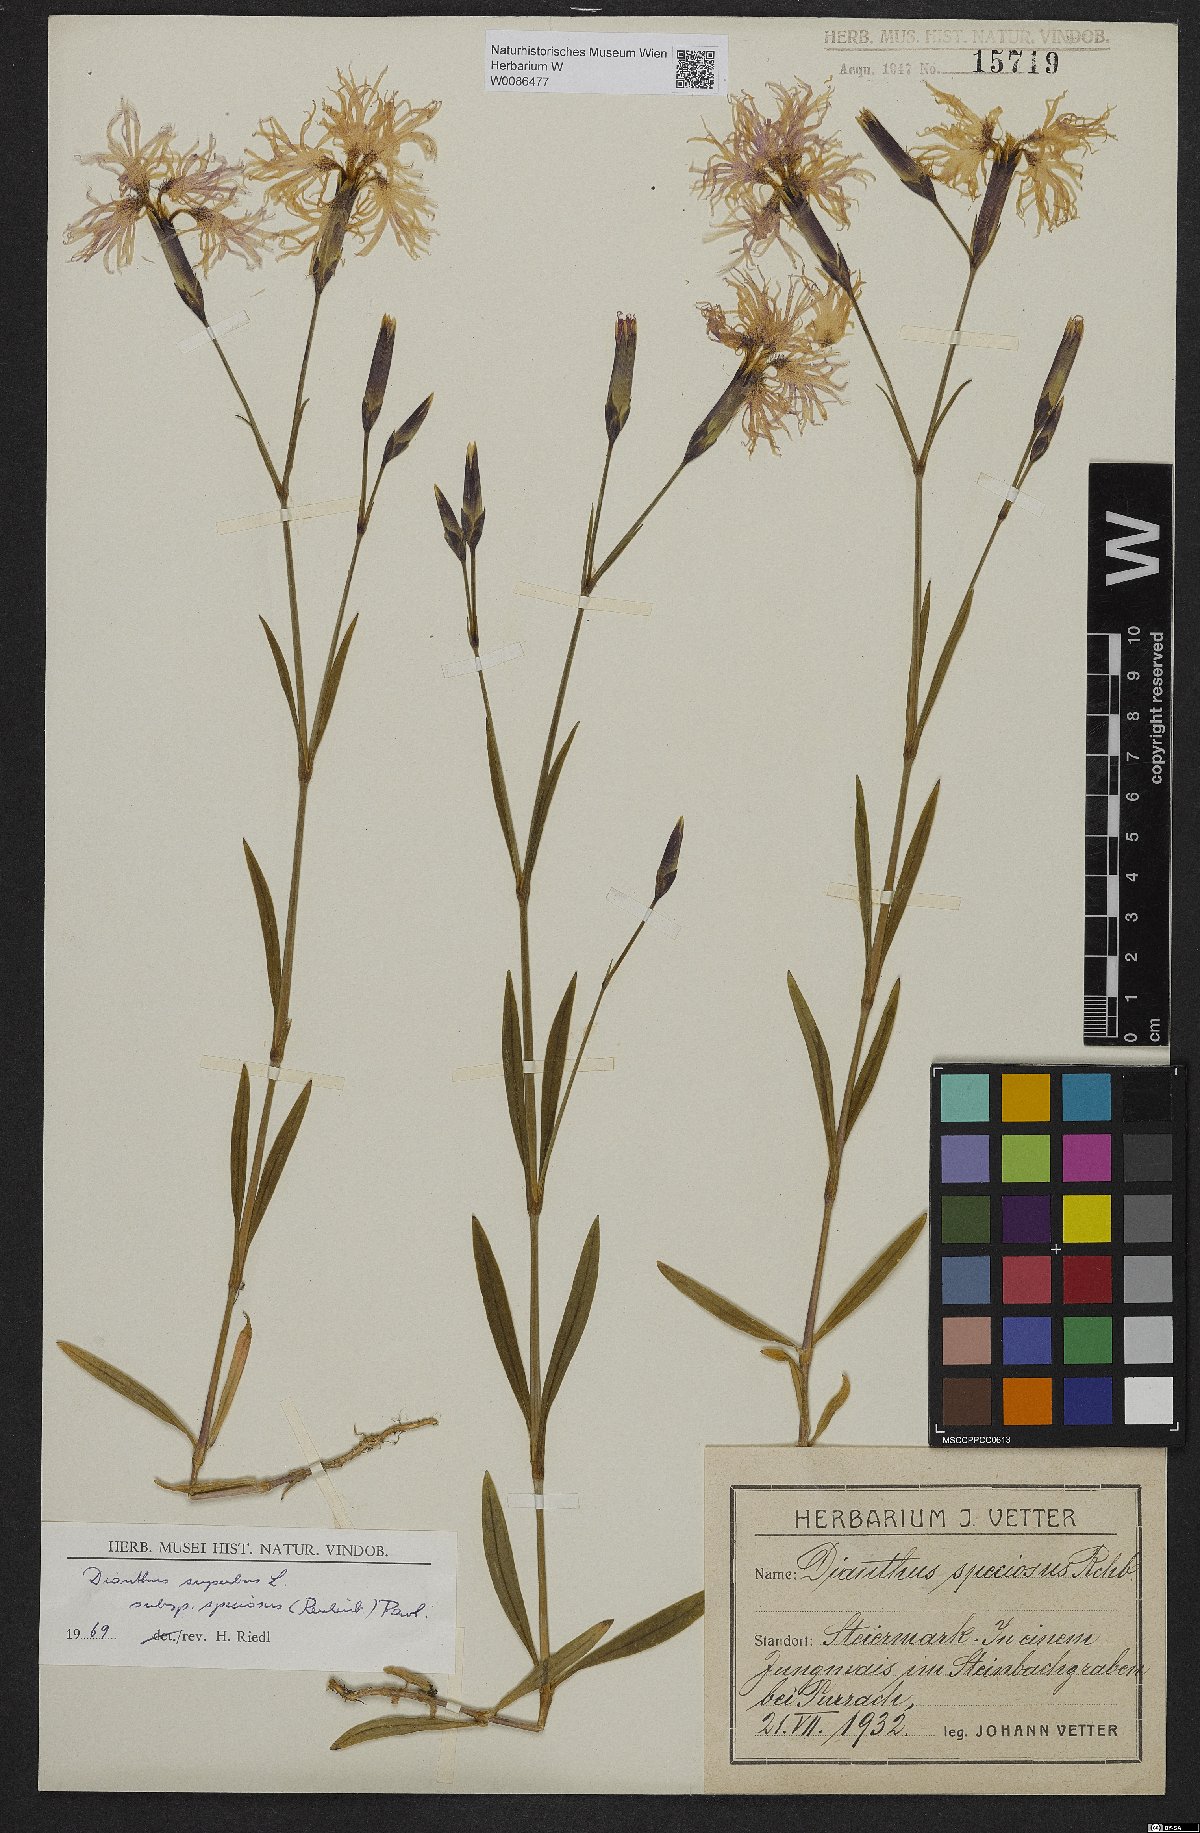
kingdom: Plantae
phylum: Tracheophyta
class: Magnoliopsida
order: Caryophyllales
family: Caryophyllaceae
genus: Dianthus
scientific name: Dianthus superbus
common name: Fringed pink
